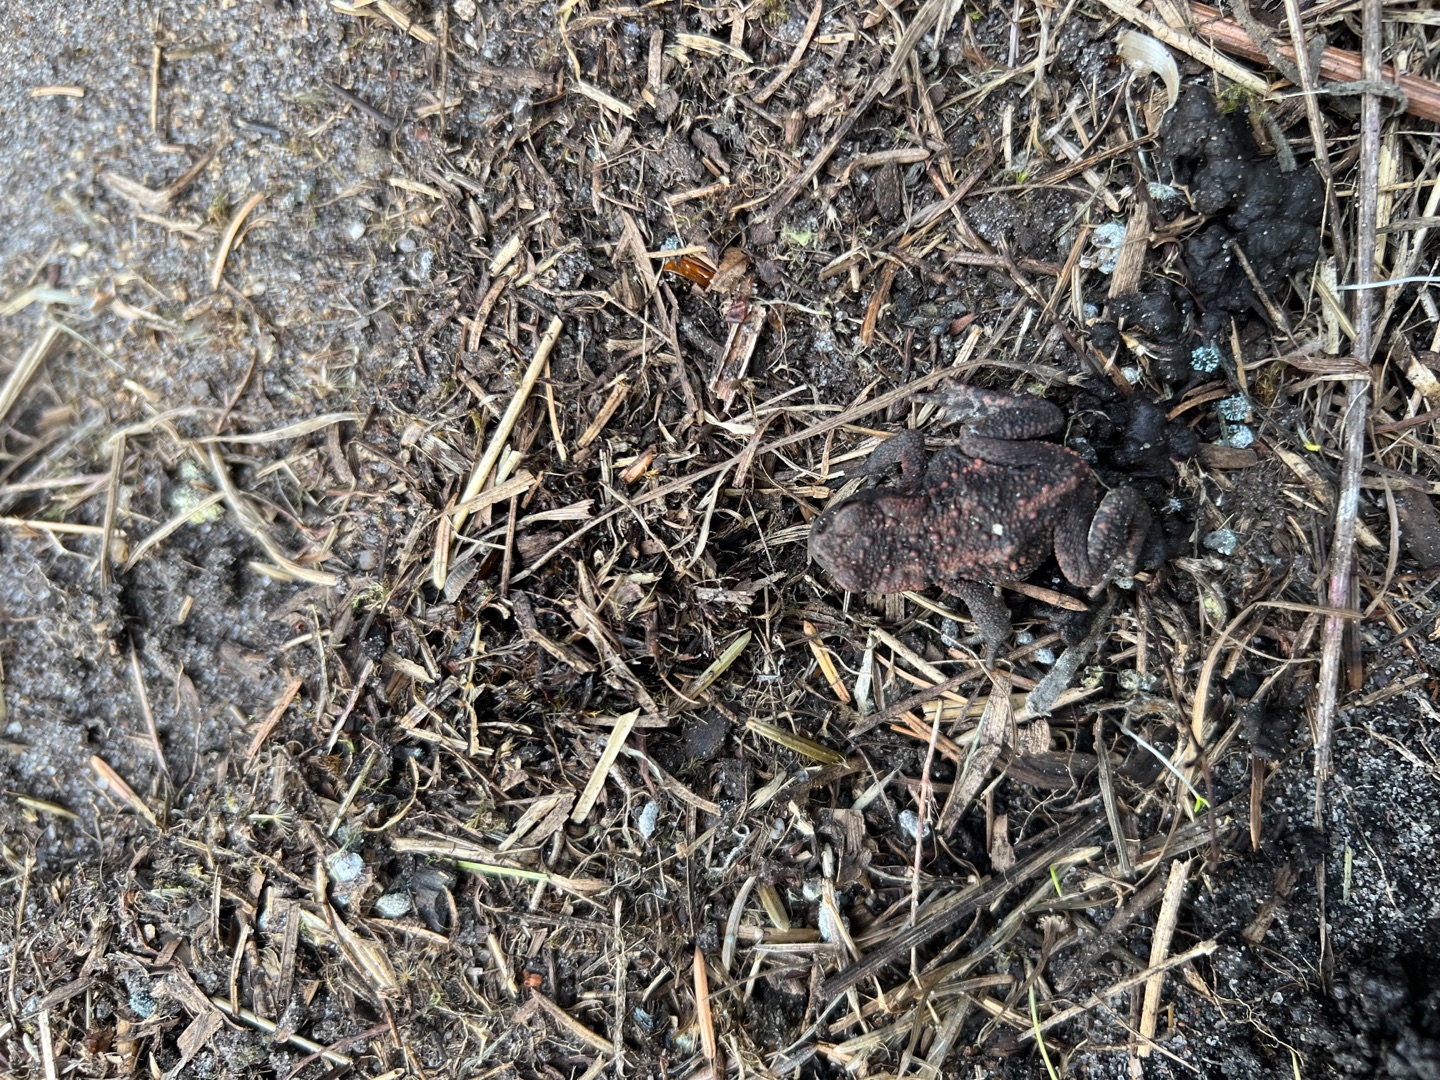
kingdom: Animalia
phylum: Chordata
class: Amphibia
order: Anura
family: Bufonidae
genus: Bufo
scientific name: Bufo bufo
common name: Skrubtudse
